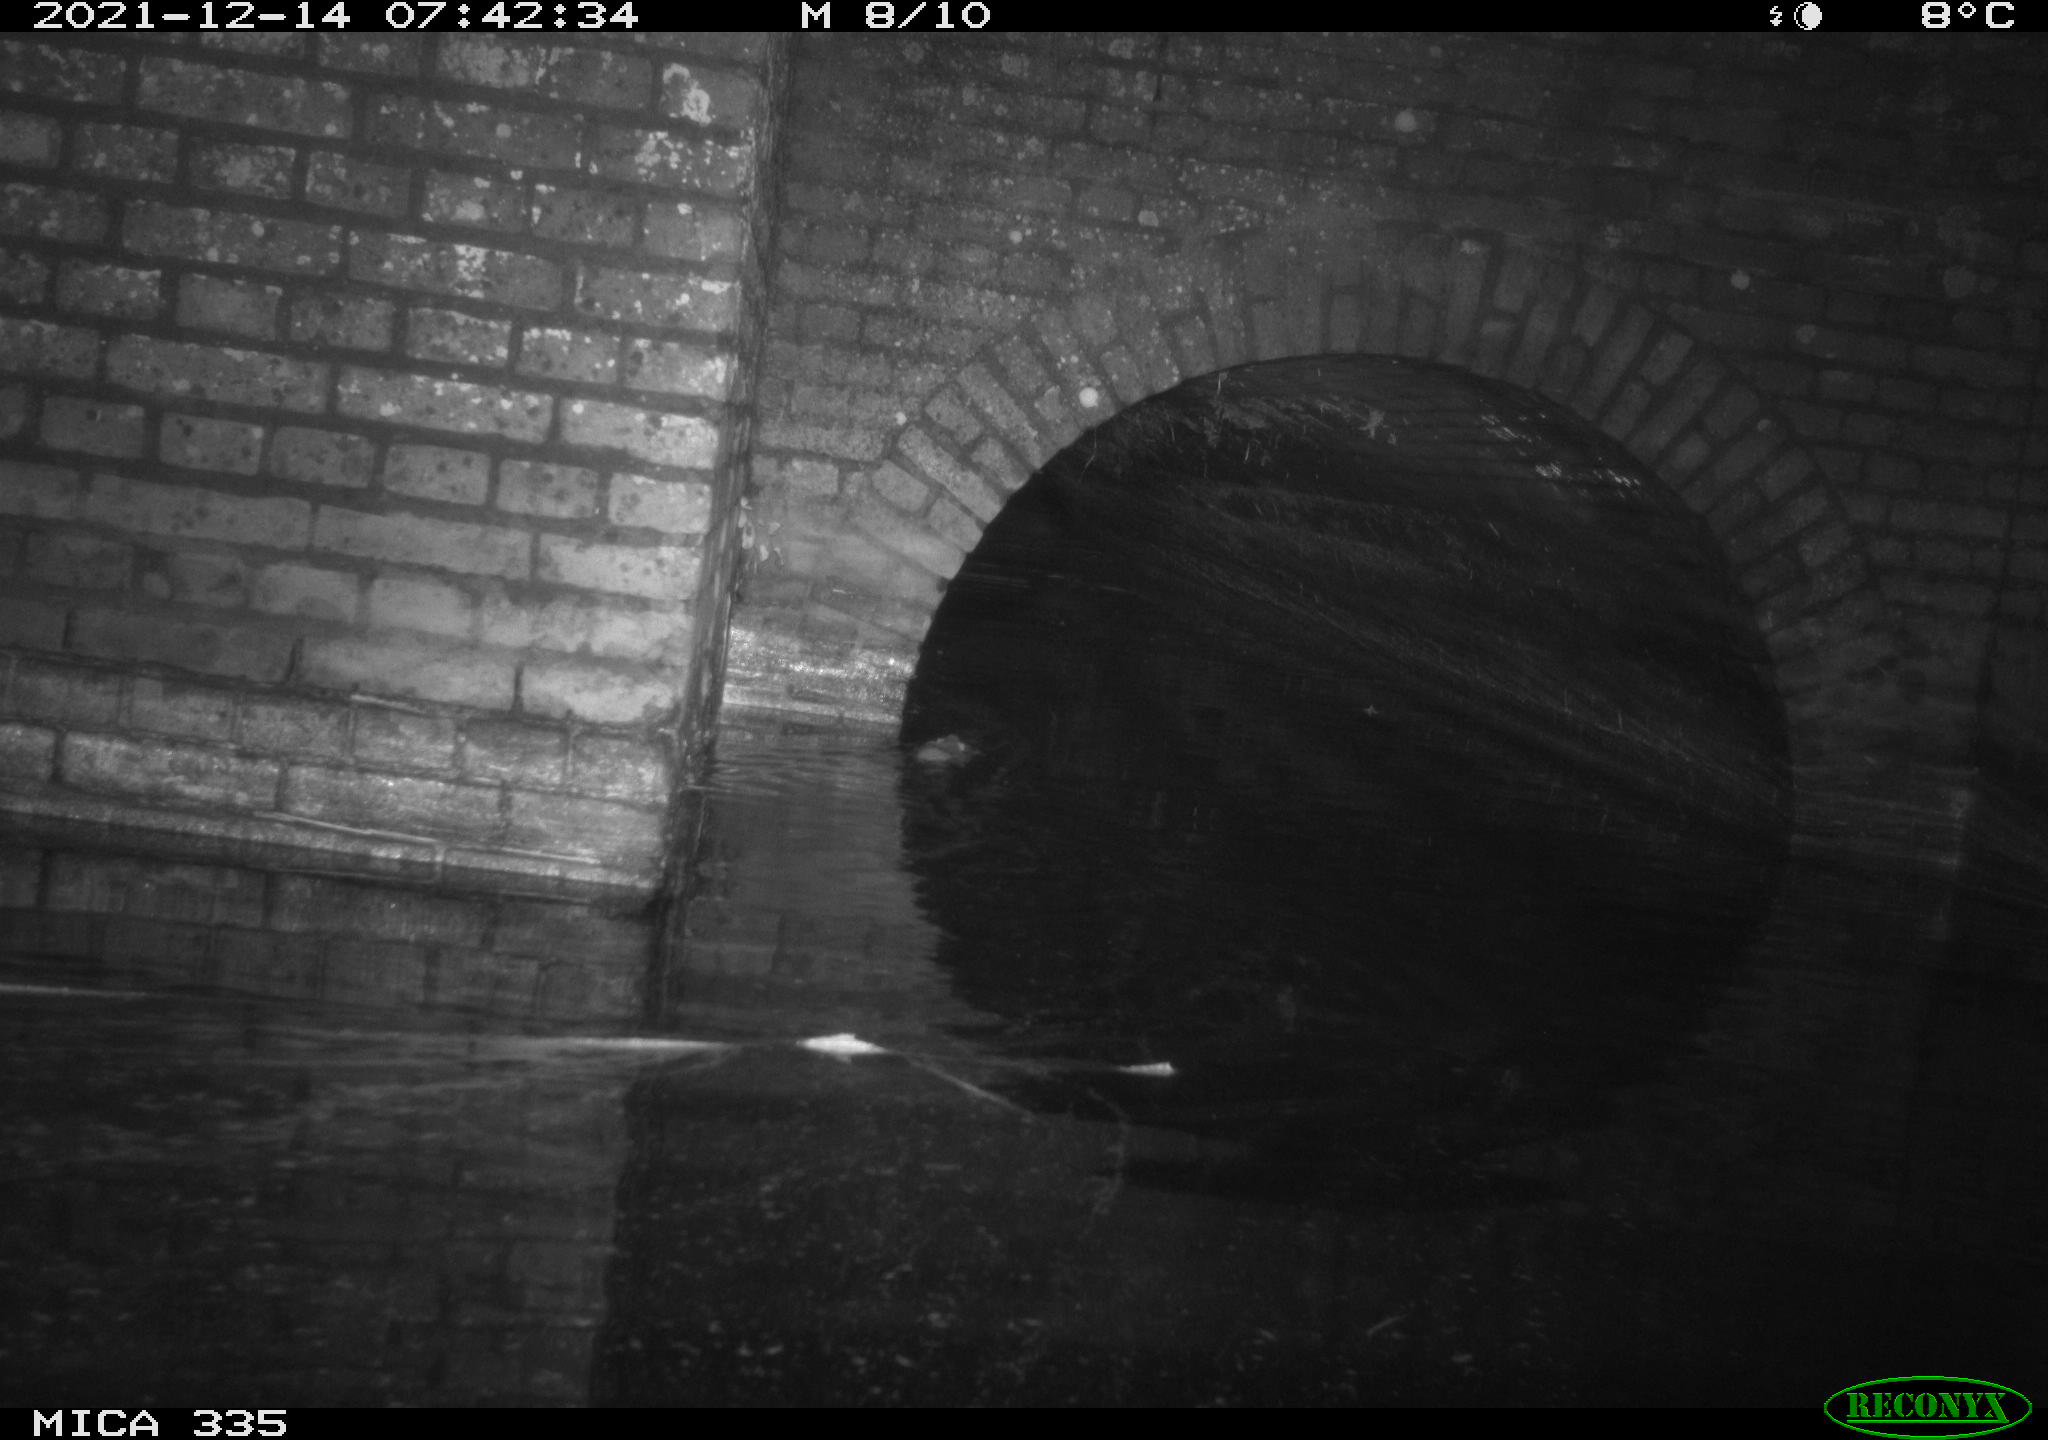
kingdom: Animalia
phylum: Chordata
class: Mammalia
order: Rodentia
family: Muridae
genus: Rattus
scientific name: Rattus norvegicus
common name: Brown rat
